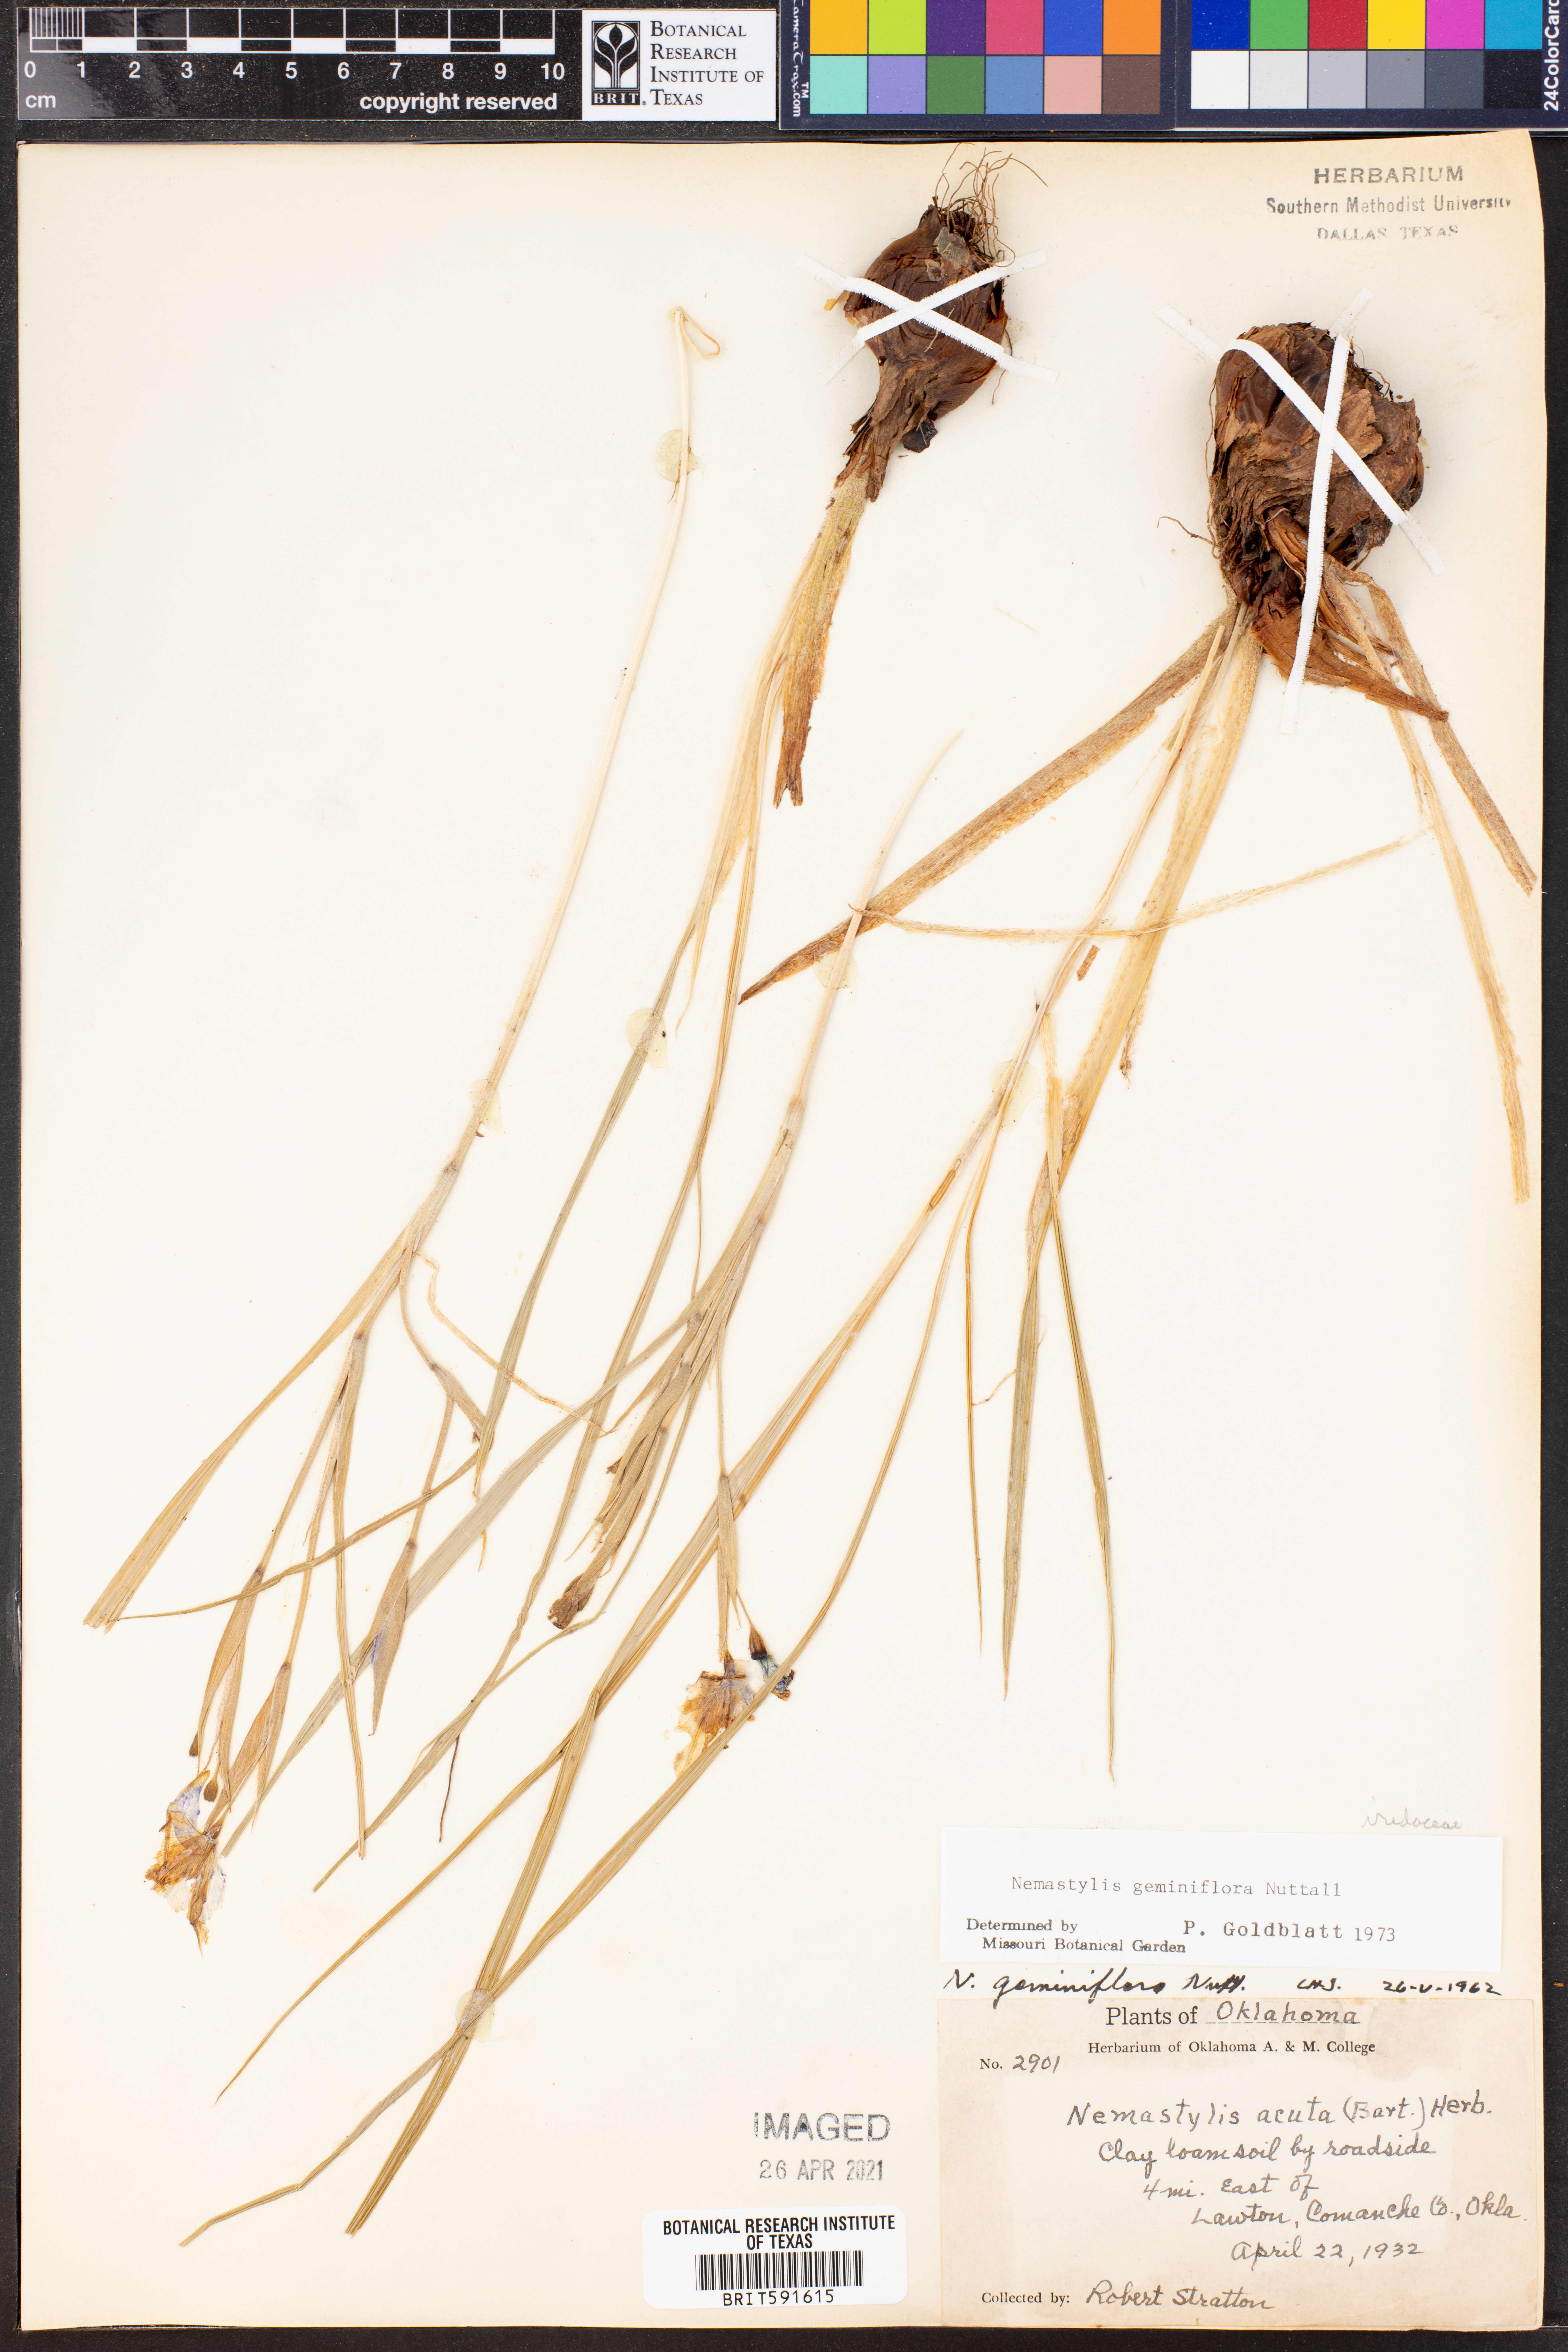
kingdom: Plantae
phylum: Tracheophyta
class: Liliopsida
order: Asparagales
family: Iridaceae
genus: Nemastylis
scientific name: Nemastylis geminiflora
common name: Prairie celestial
